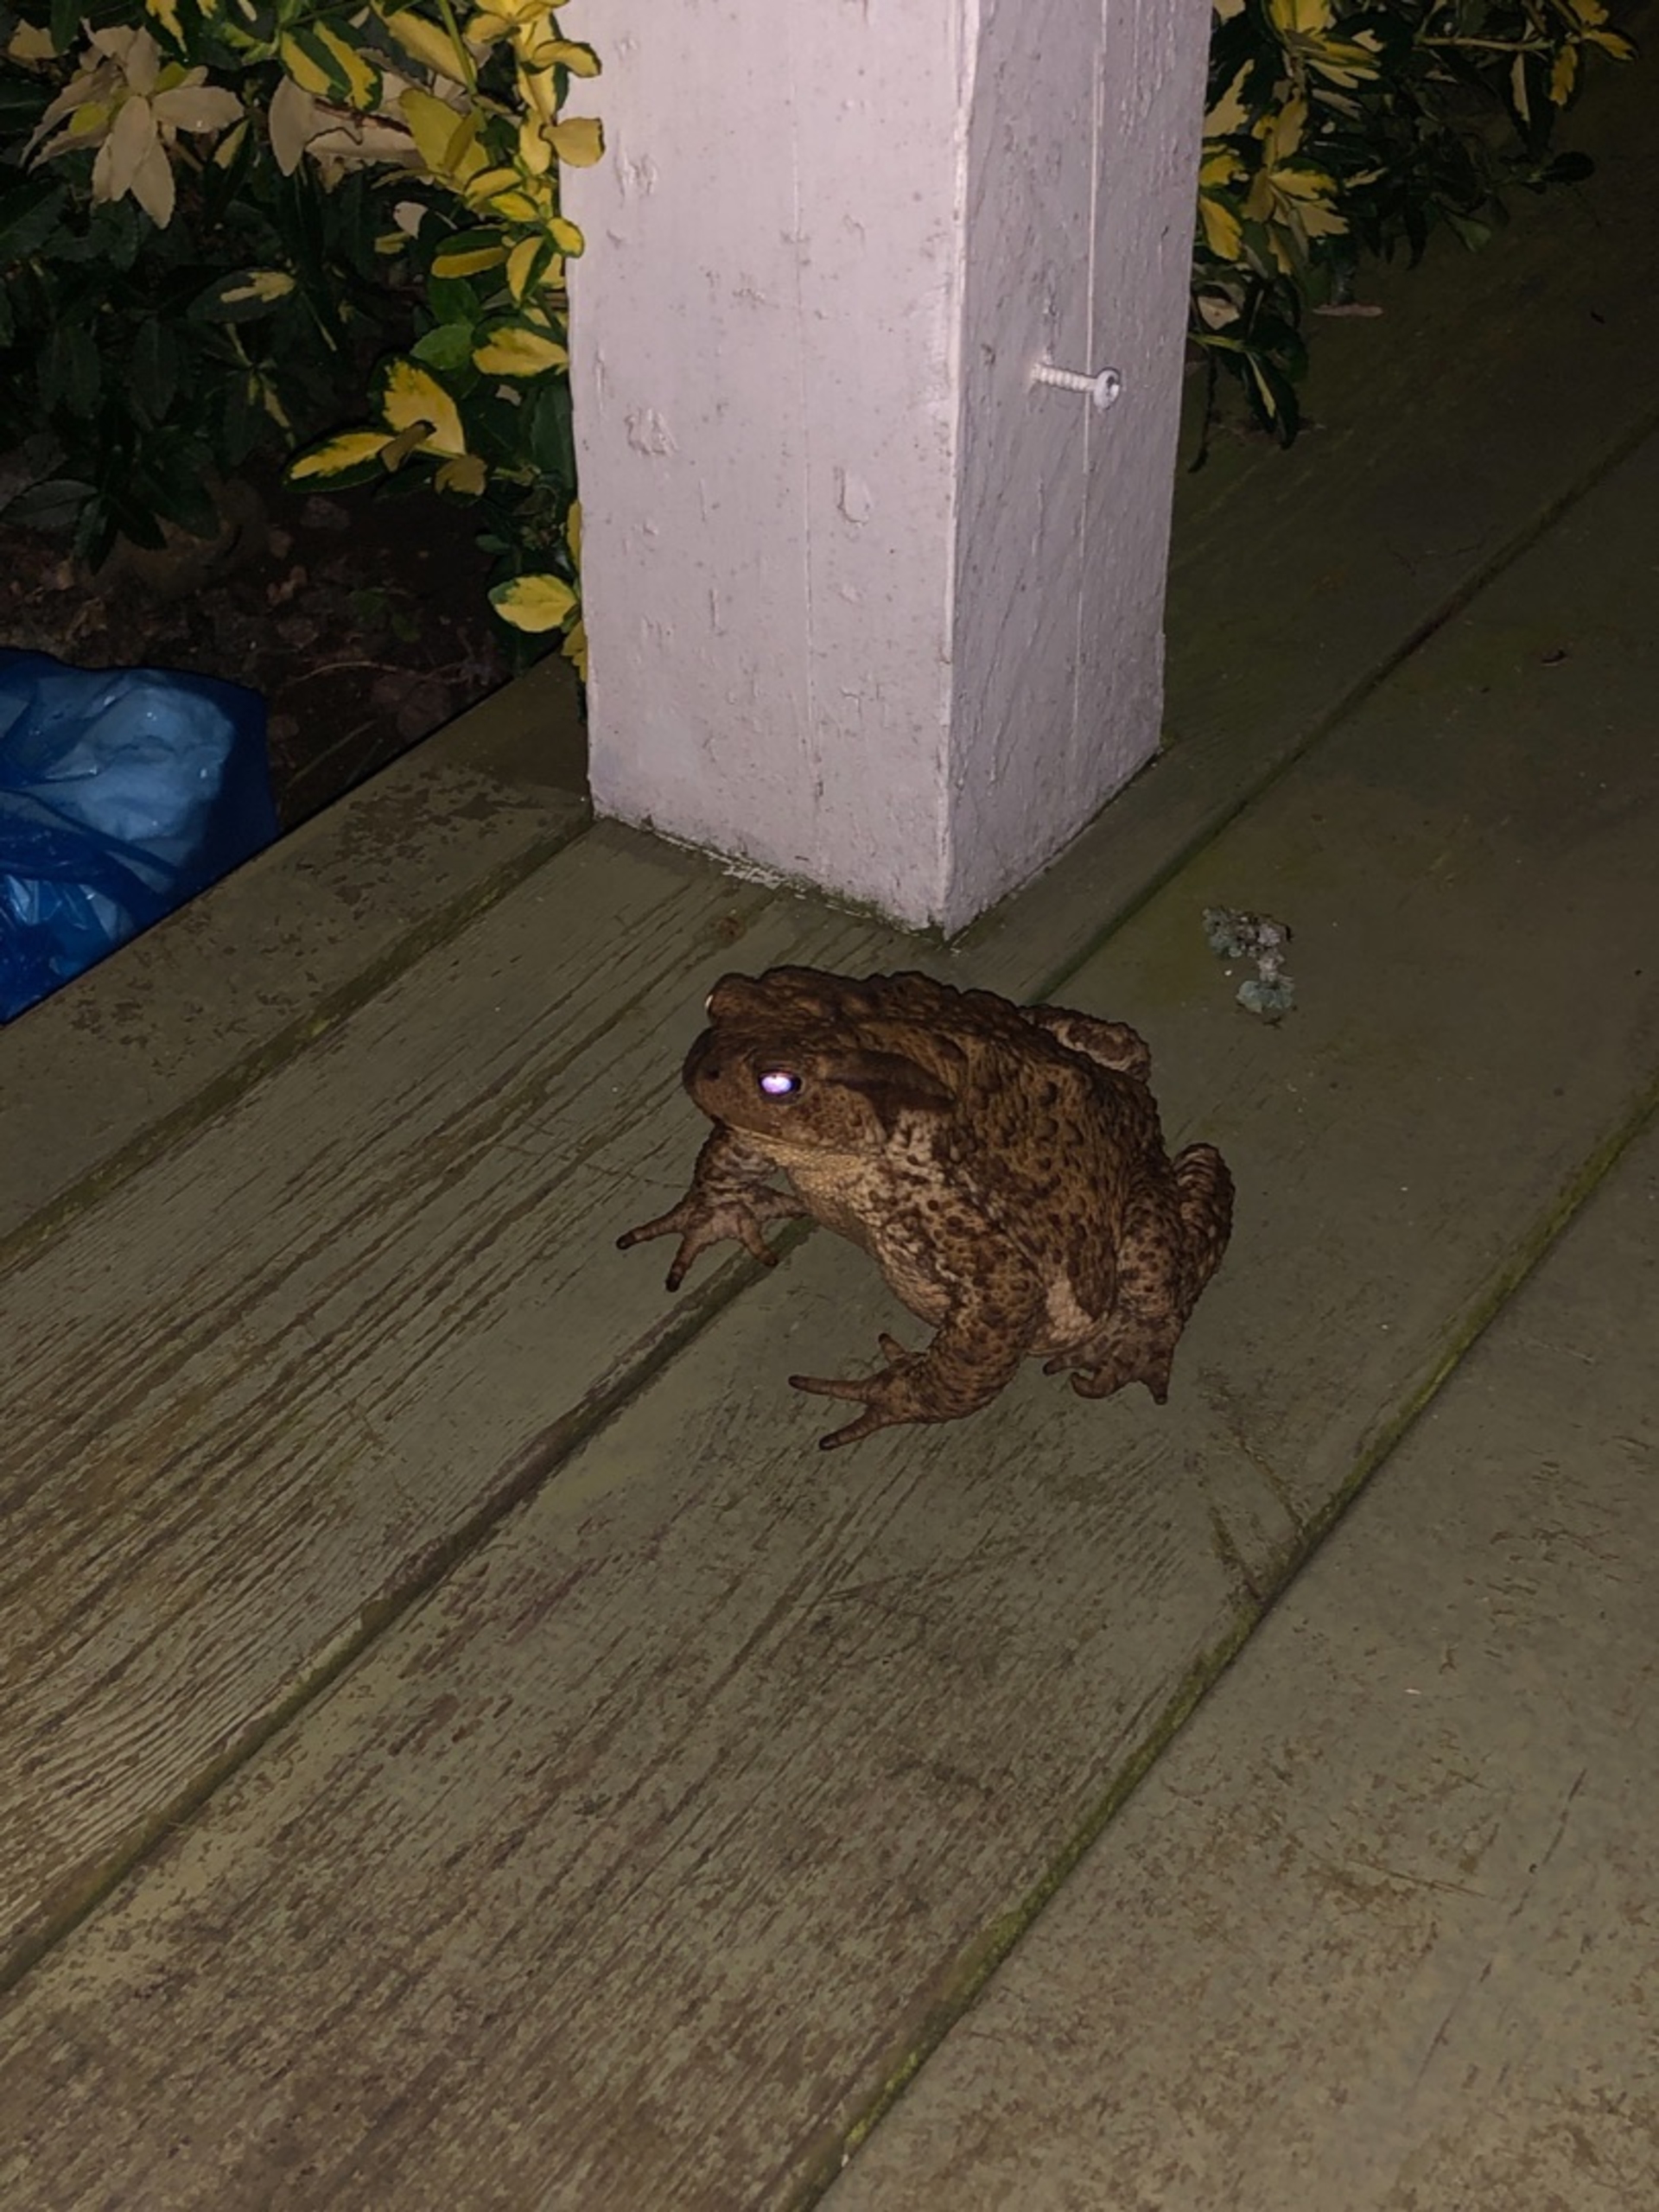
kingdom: Animalia
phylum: Chordata
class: Amphibia
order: Anura
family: Bufonidae
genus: Bufo
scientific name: Bufo bufo
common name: Skrubtudse
